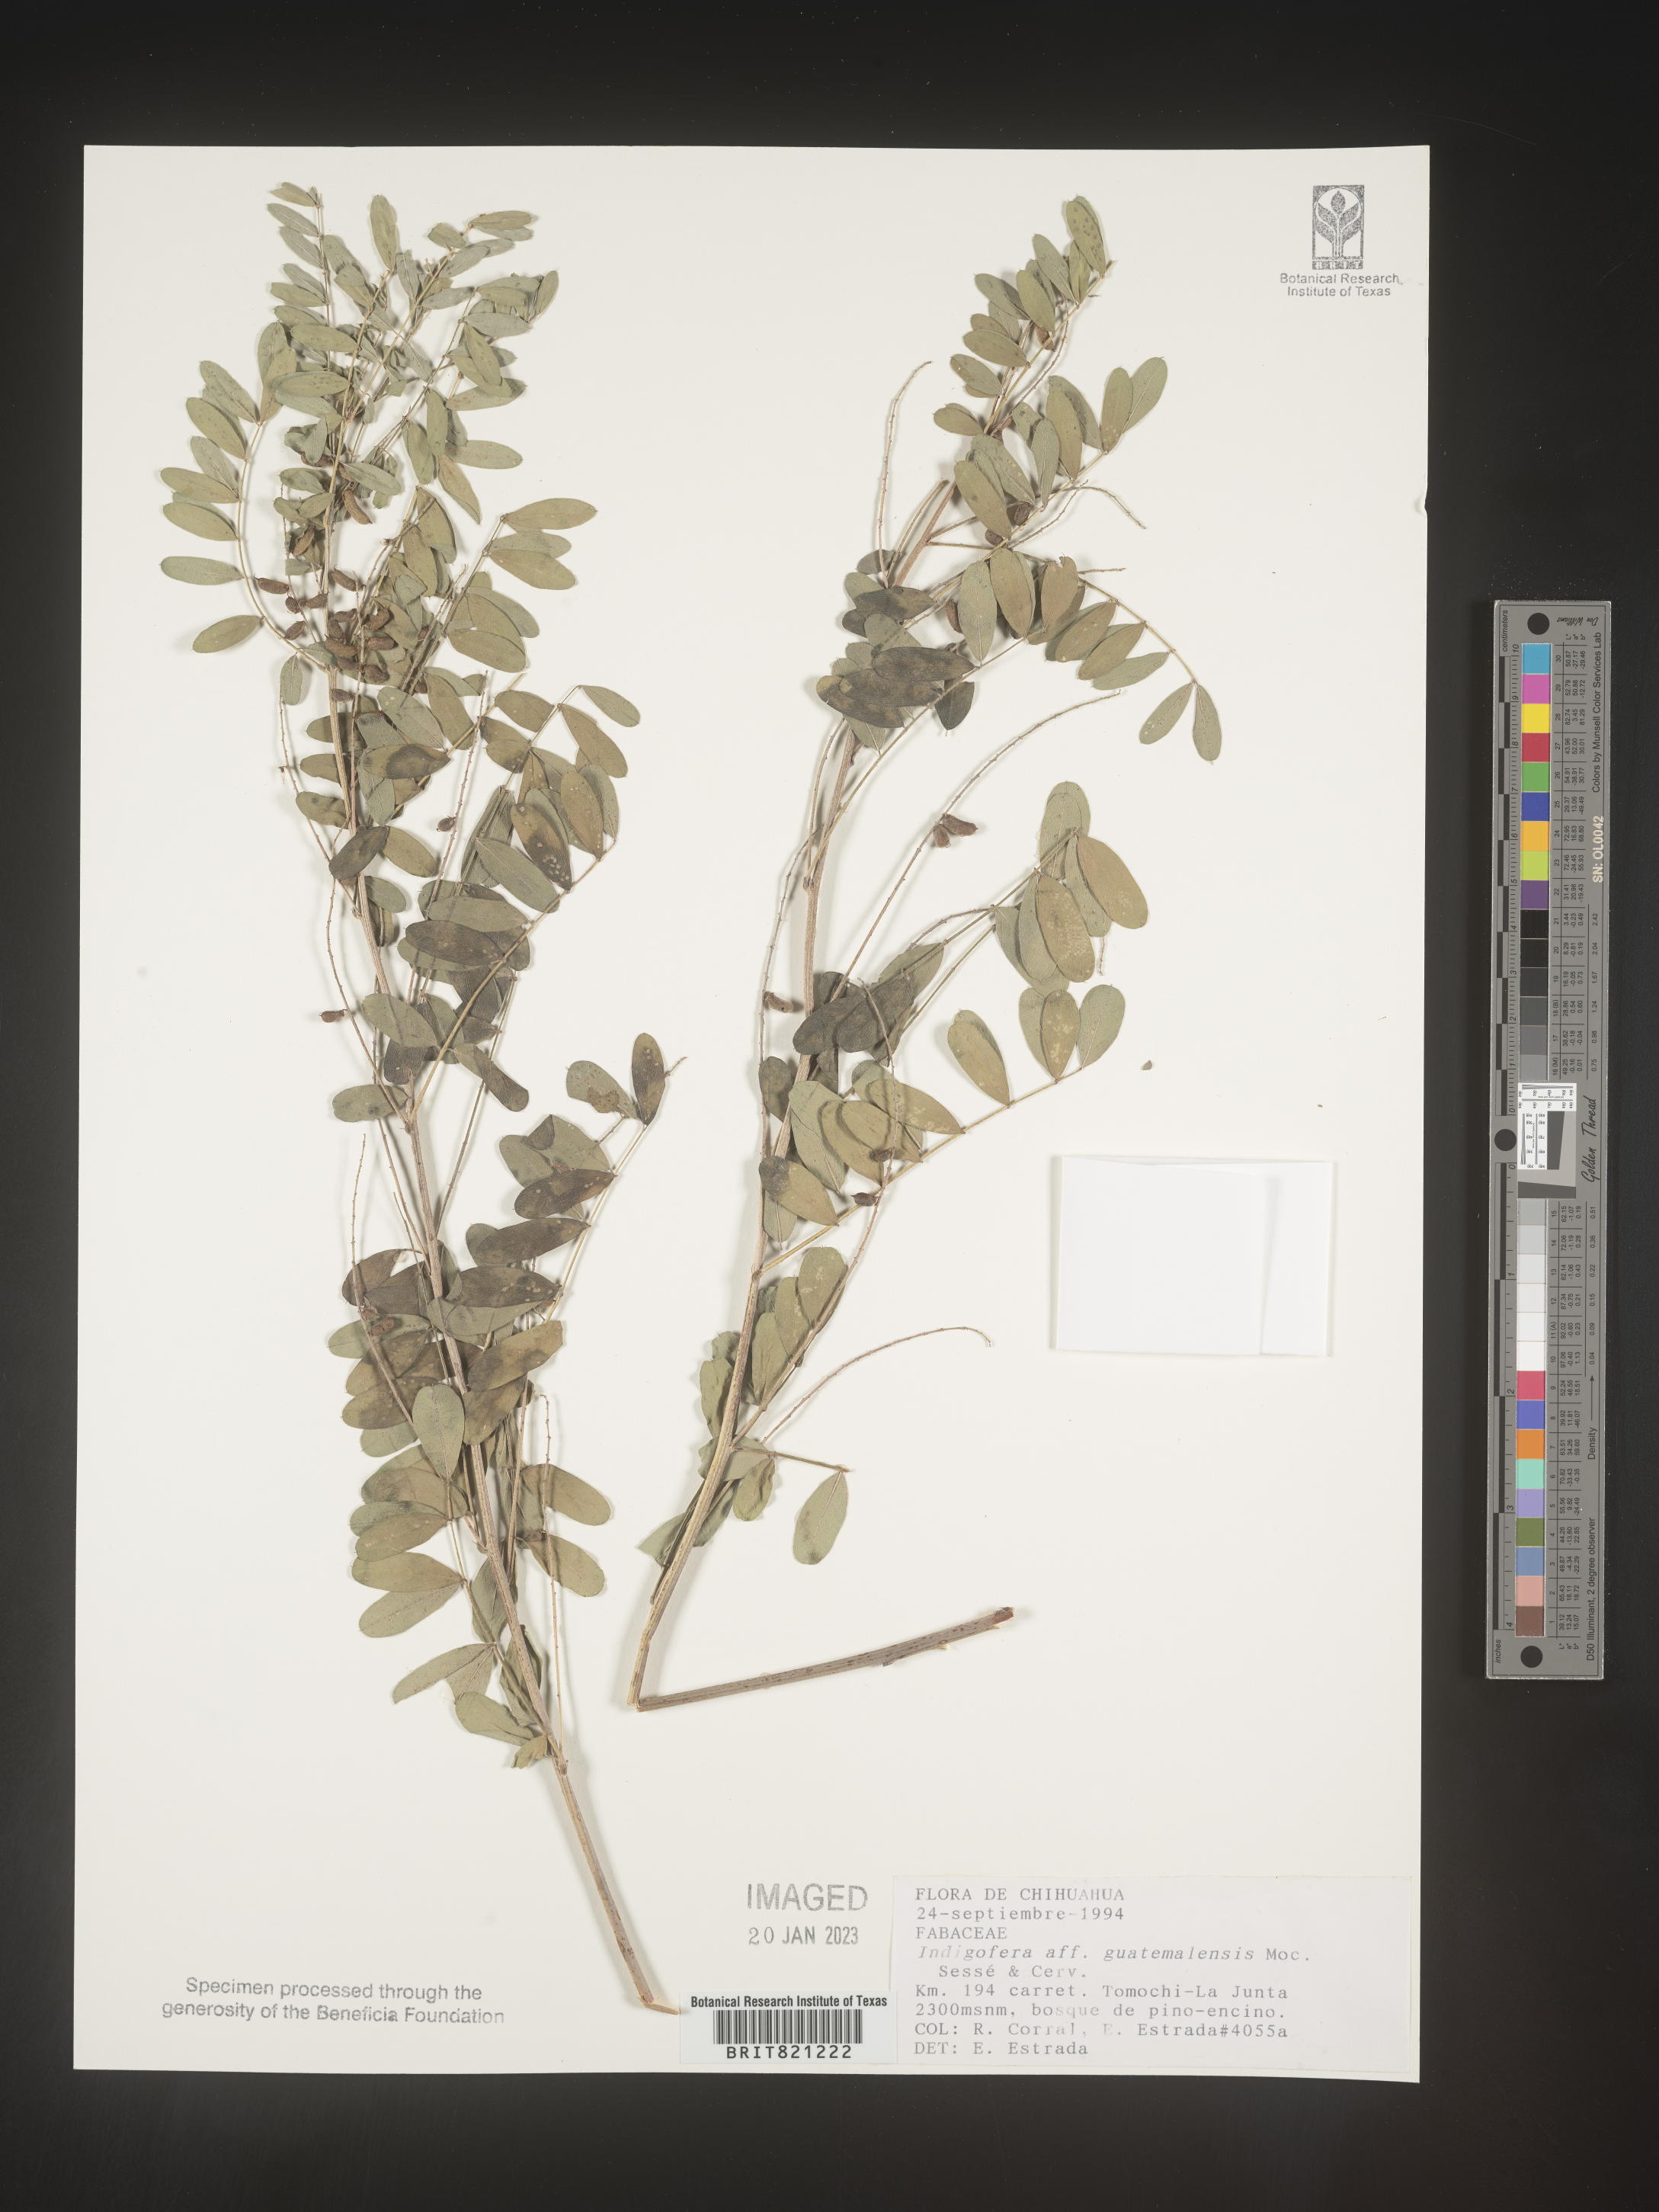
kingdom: Plantae
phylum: Tracheophyta
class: Magnoliopsida
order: Fabales
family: Fabaceae
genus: Indigofera
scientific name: Indigofera
